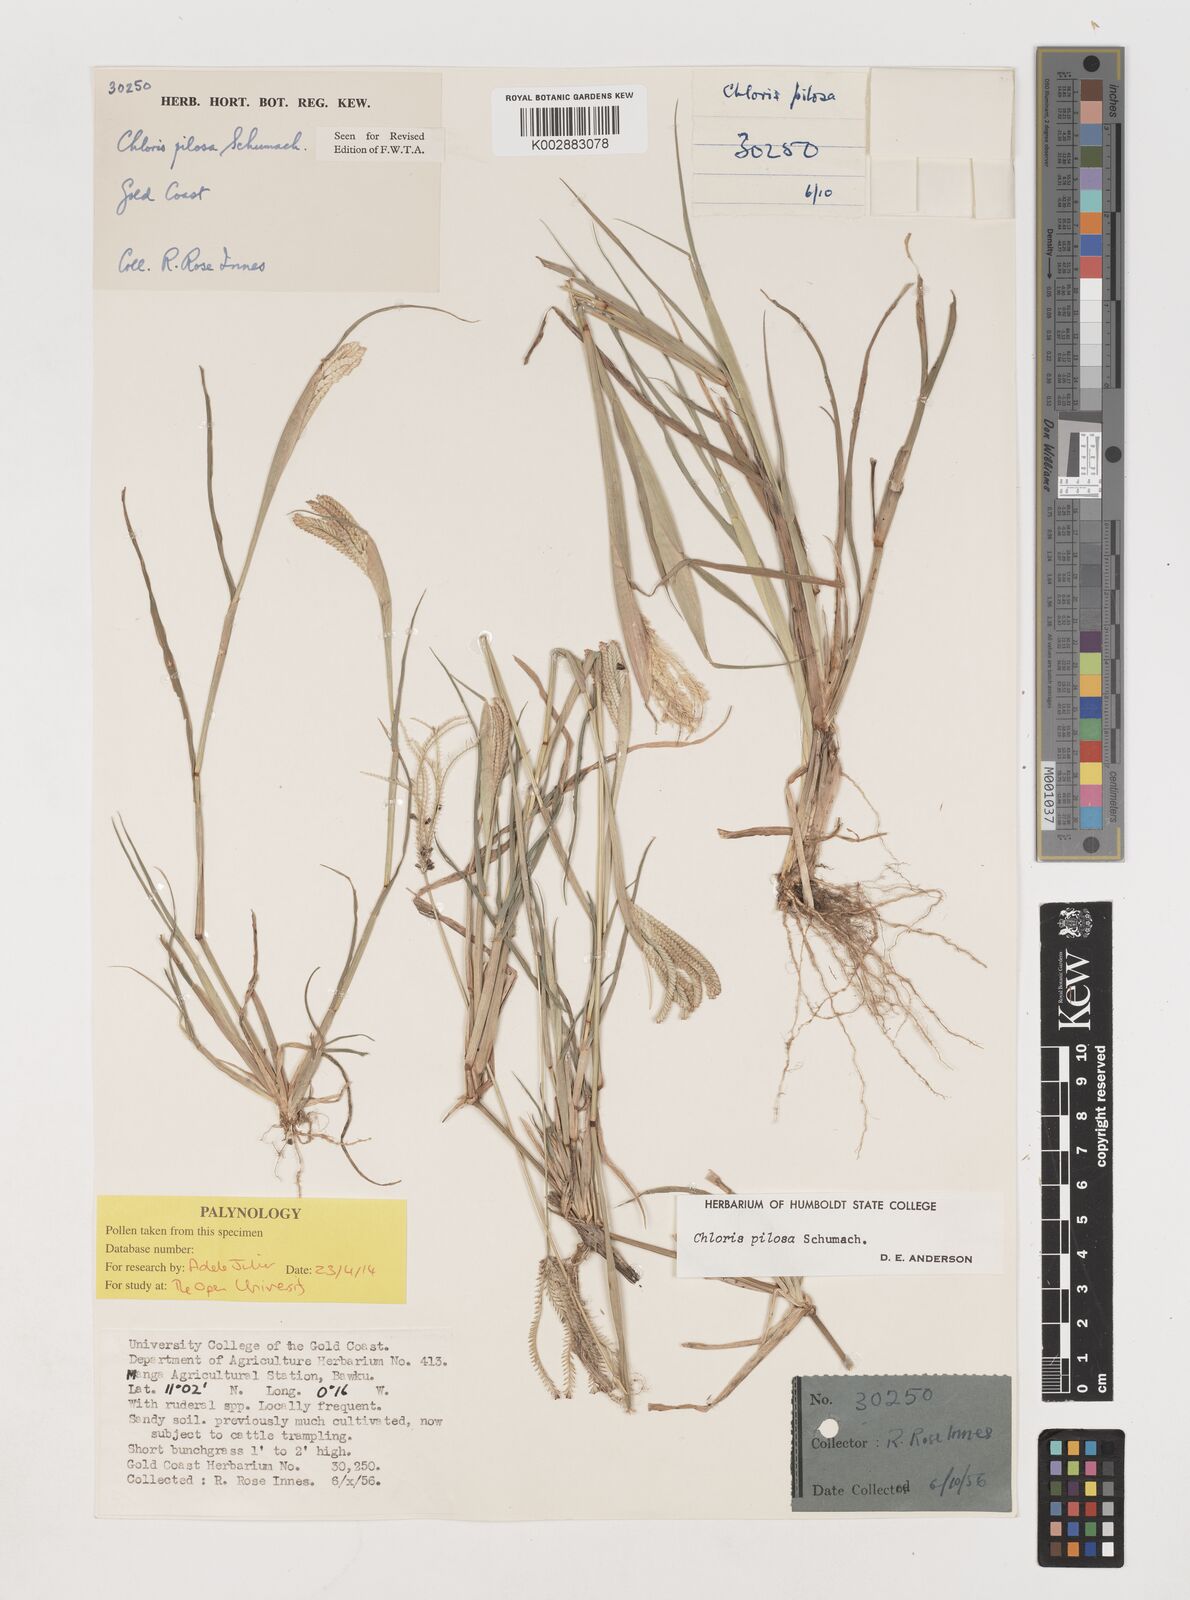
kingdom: Plantae
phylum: Tracheophyta
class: Liliopsida
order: Poales
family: Poaceae
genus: Chloris
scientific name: Chloris pilosa
